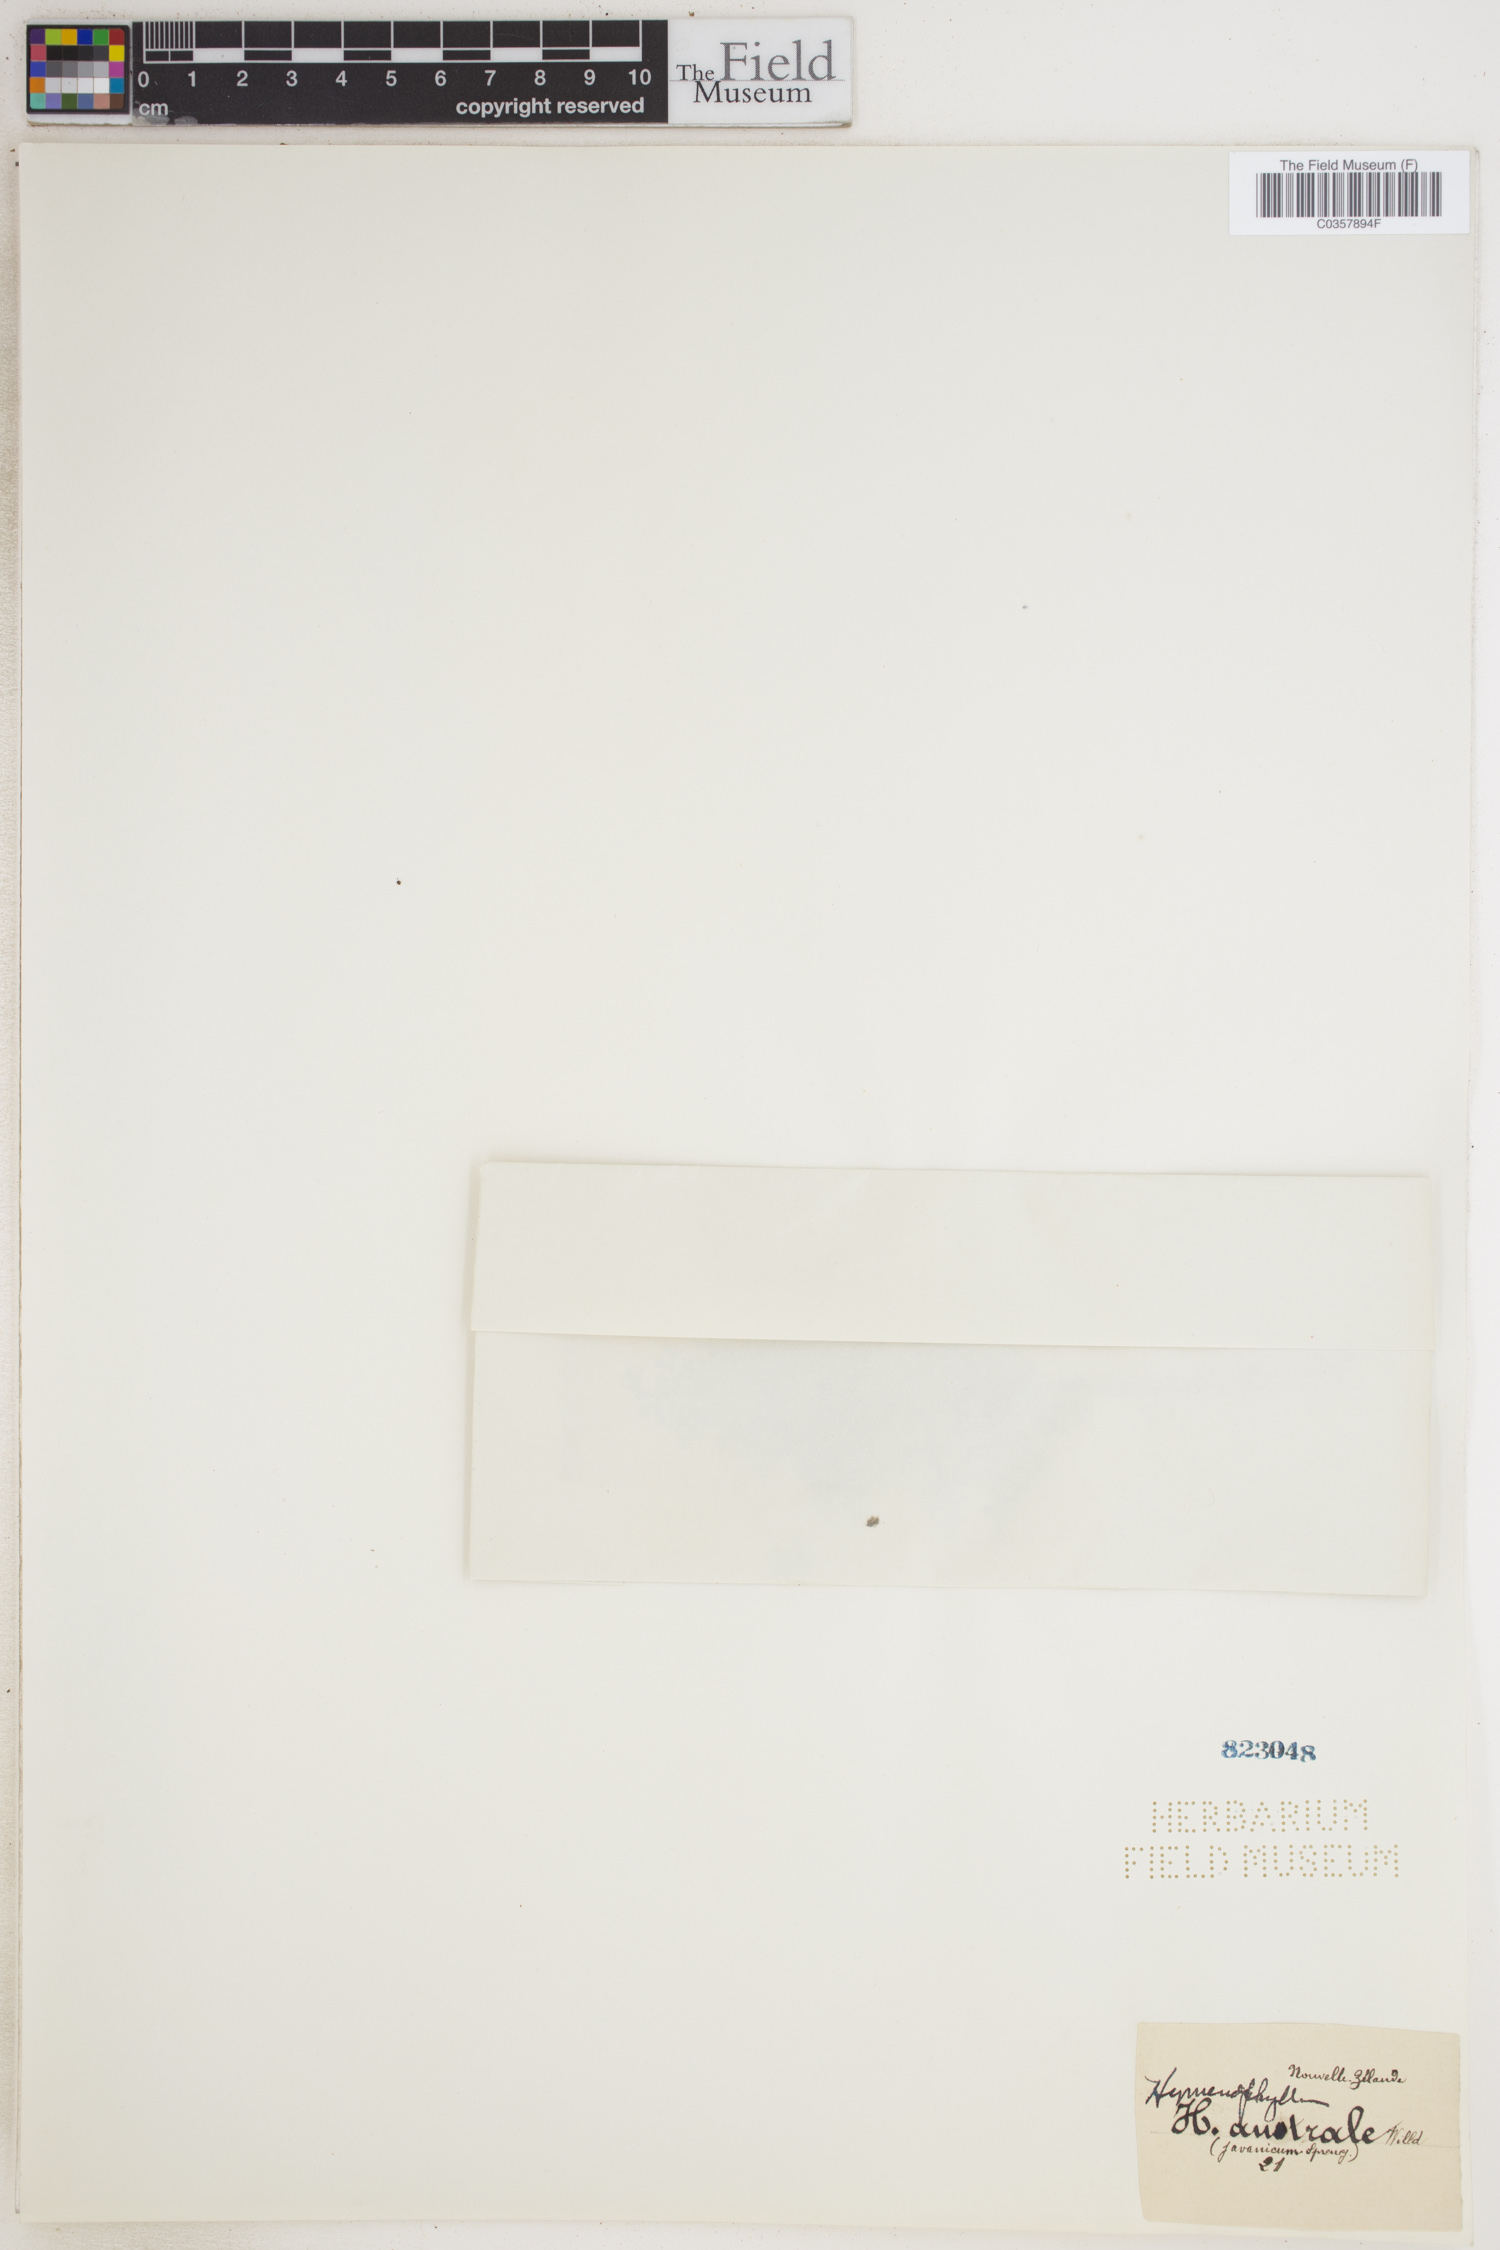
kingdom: Plantae
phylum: Tracheophyta
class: Polypodiopsida
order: Hymenophyllales
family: Hymenophyllaceae
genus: Hymenophyllum
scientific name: Hymenophyllum australe
